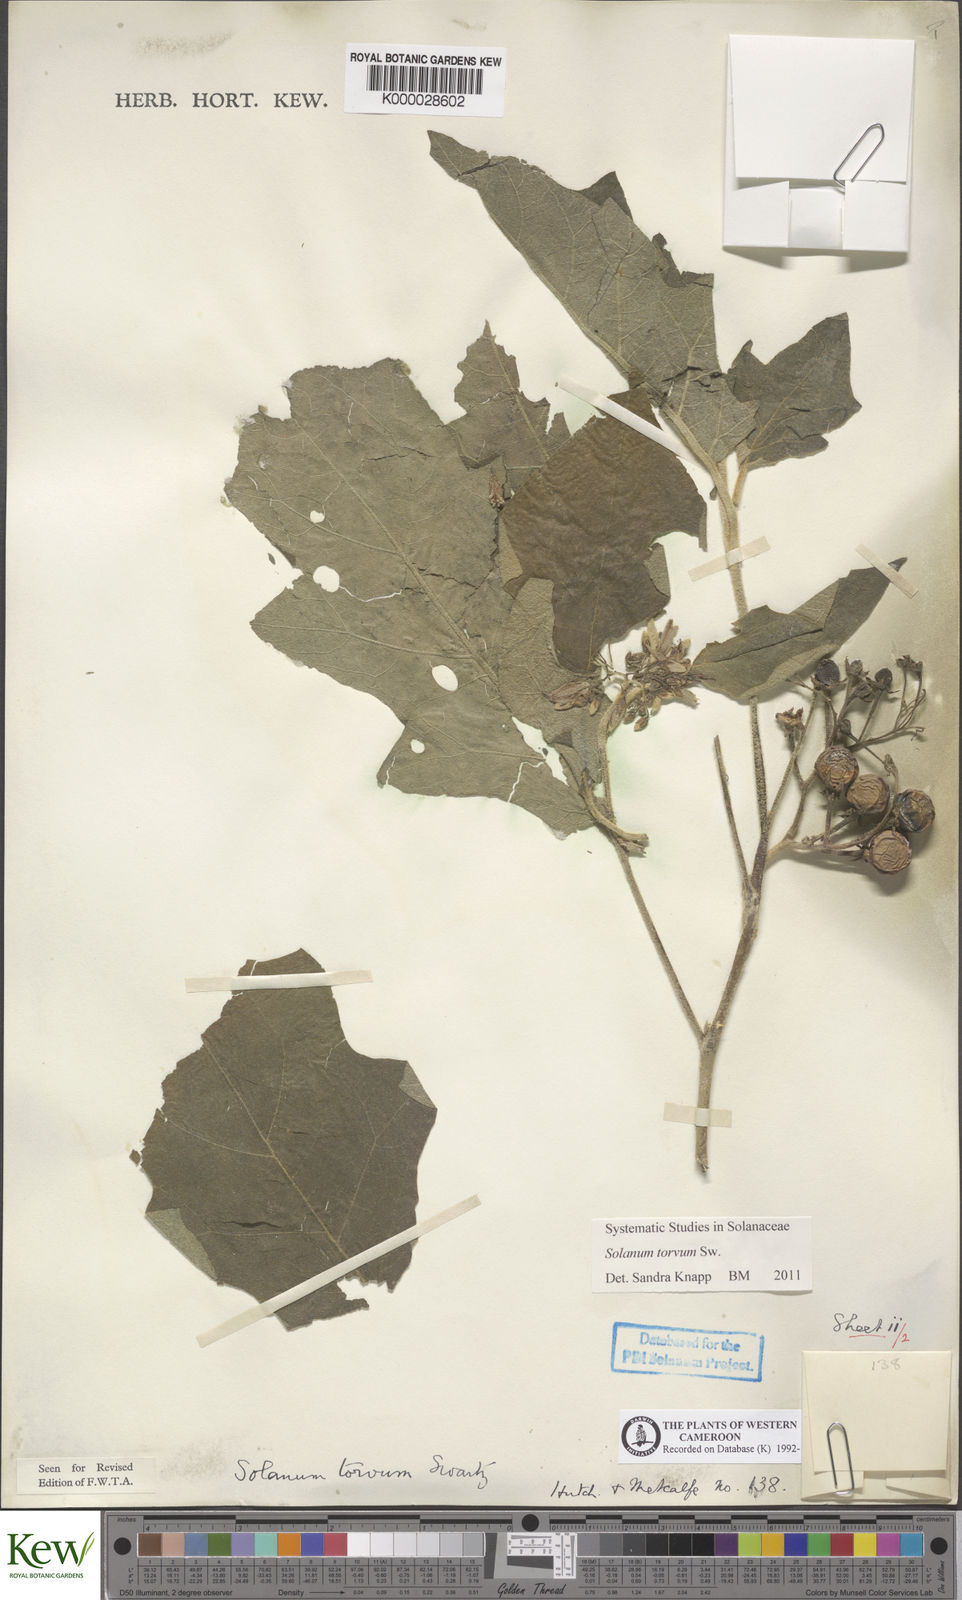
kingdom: Plantae
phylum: Tracheophyta
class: Magnoliopsida
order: Solanales
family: Solanaceae
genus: Solanum
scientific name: Solanum torvum
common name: Turkey berry
